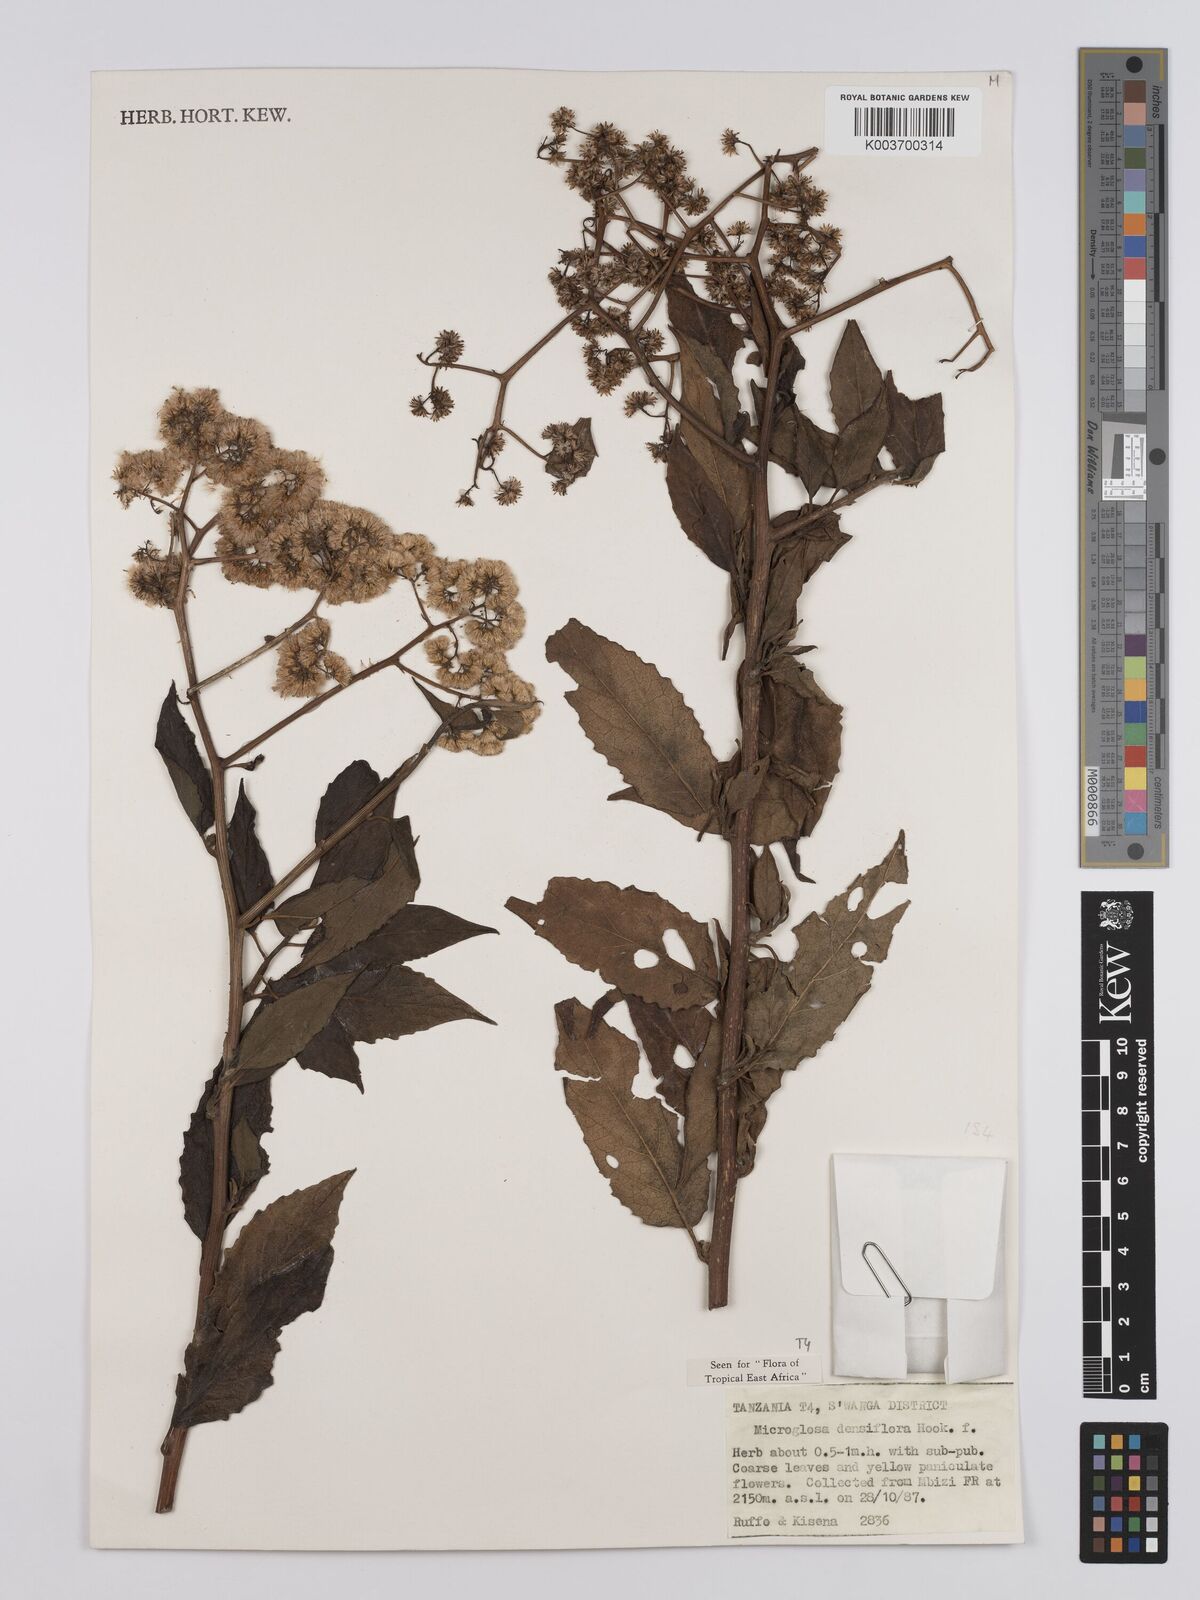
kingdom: Plantae
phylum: Tracheophyta
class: Magnoliopsida
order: Asterales
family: Asteraceae
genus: Microglossa
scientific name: Microglossa densiflora
